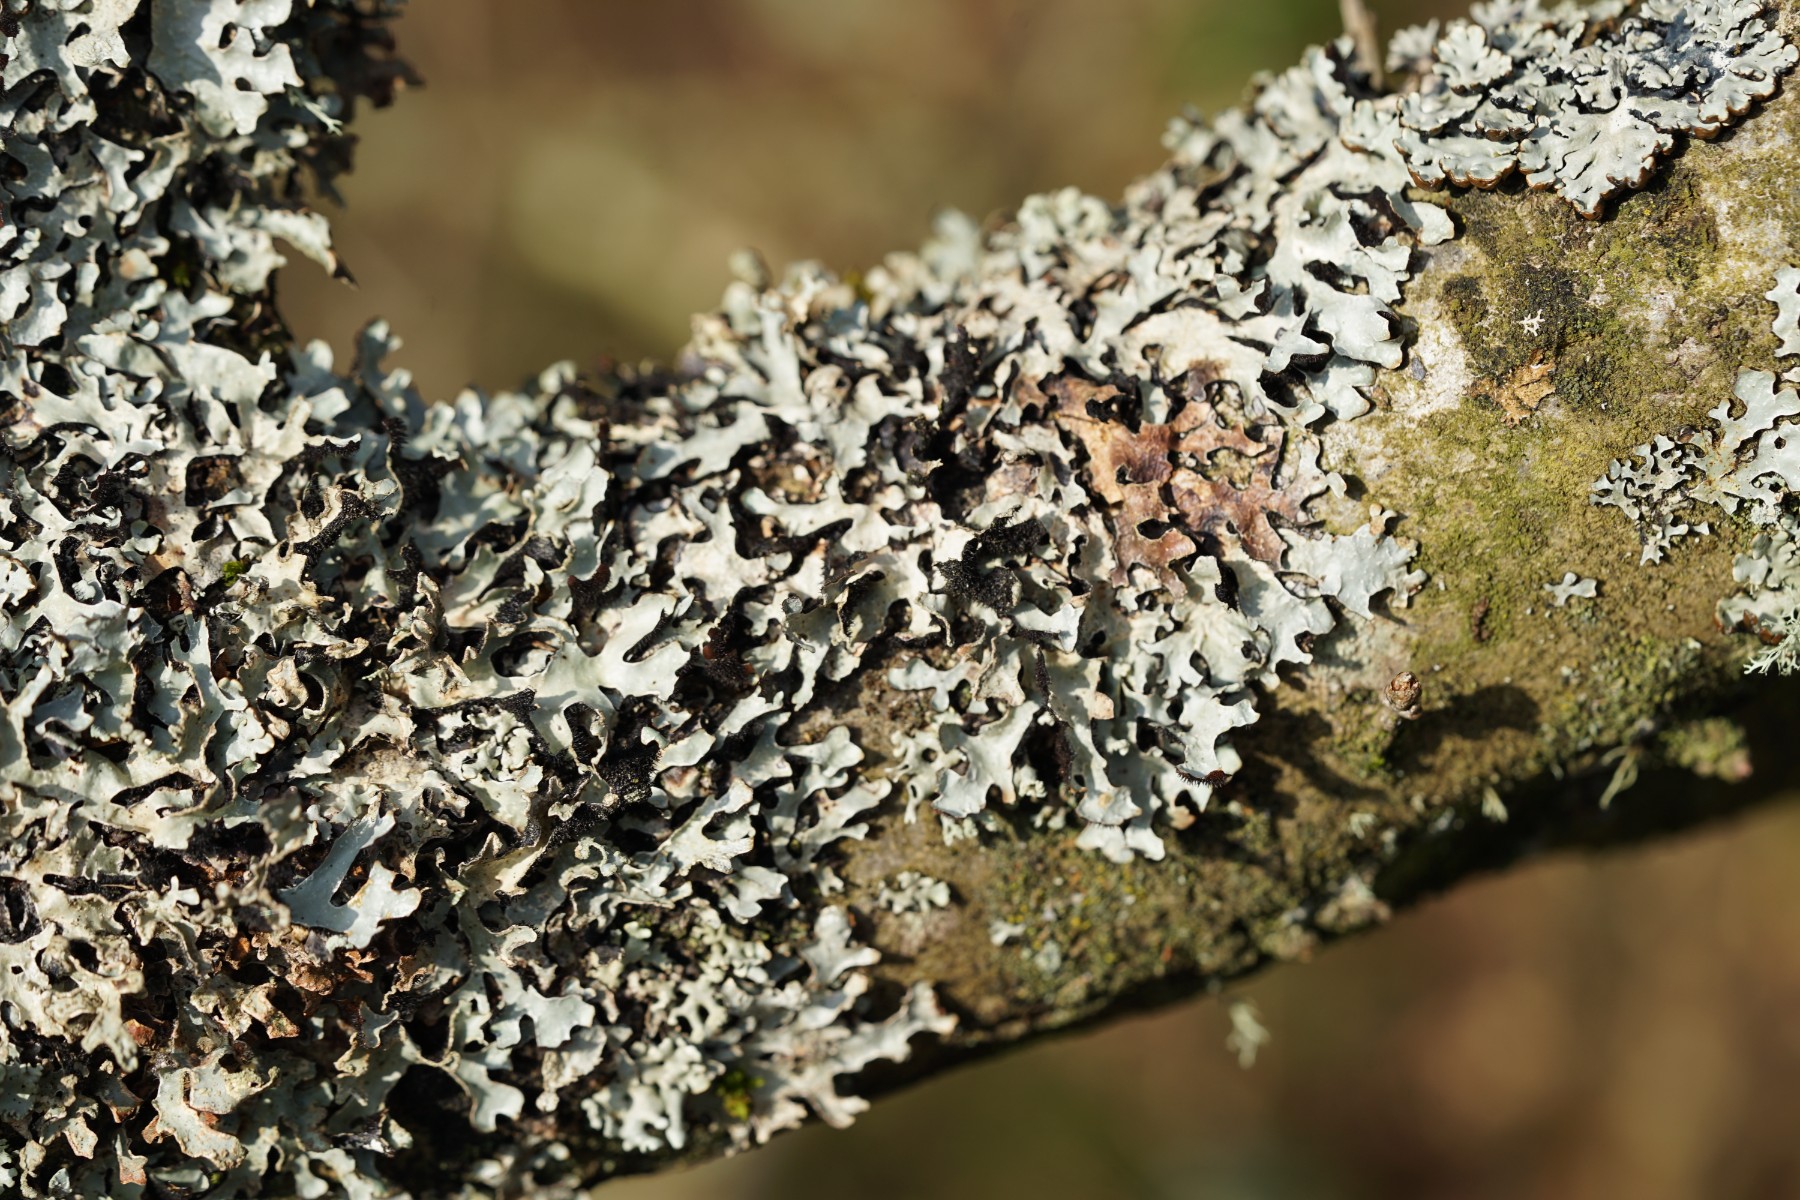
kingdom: Fungi
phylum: Ascomycota
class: Lecanoromycetes
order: Lecanorales
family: Parmeliaceae
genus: Parmelia
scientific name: Parmelia sulcata
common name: rynket skållav
